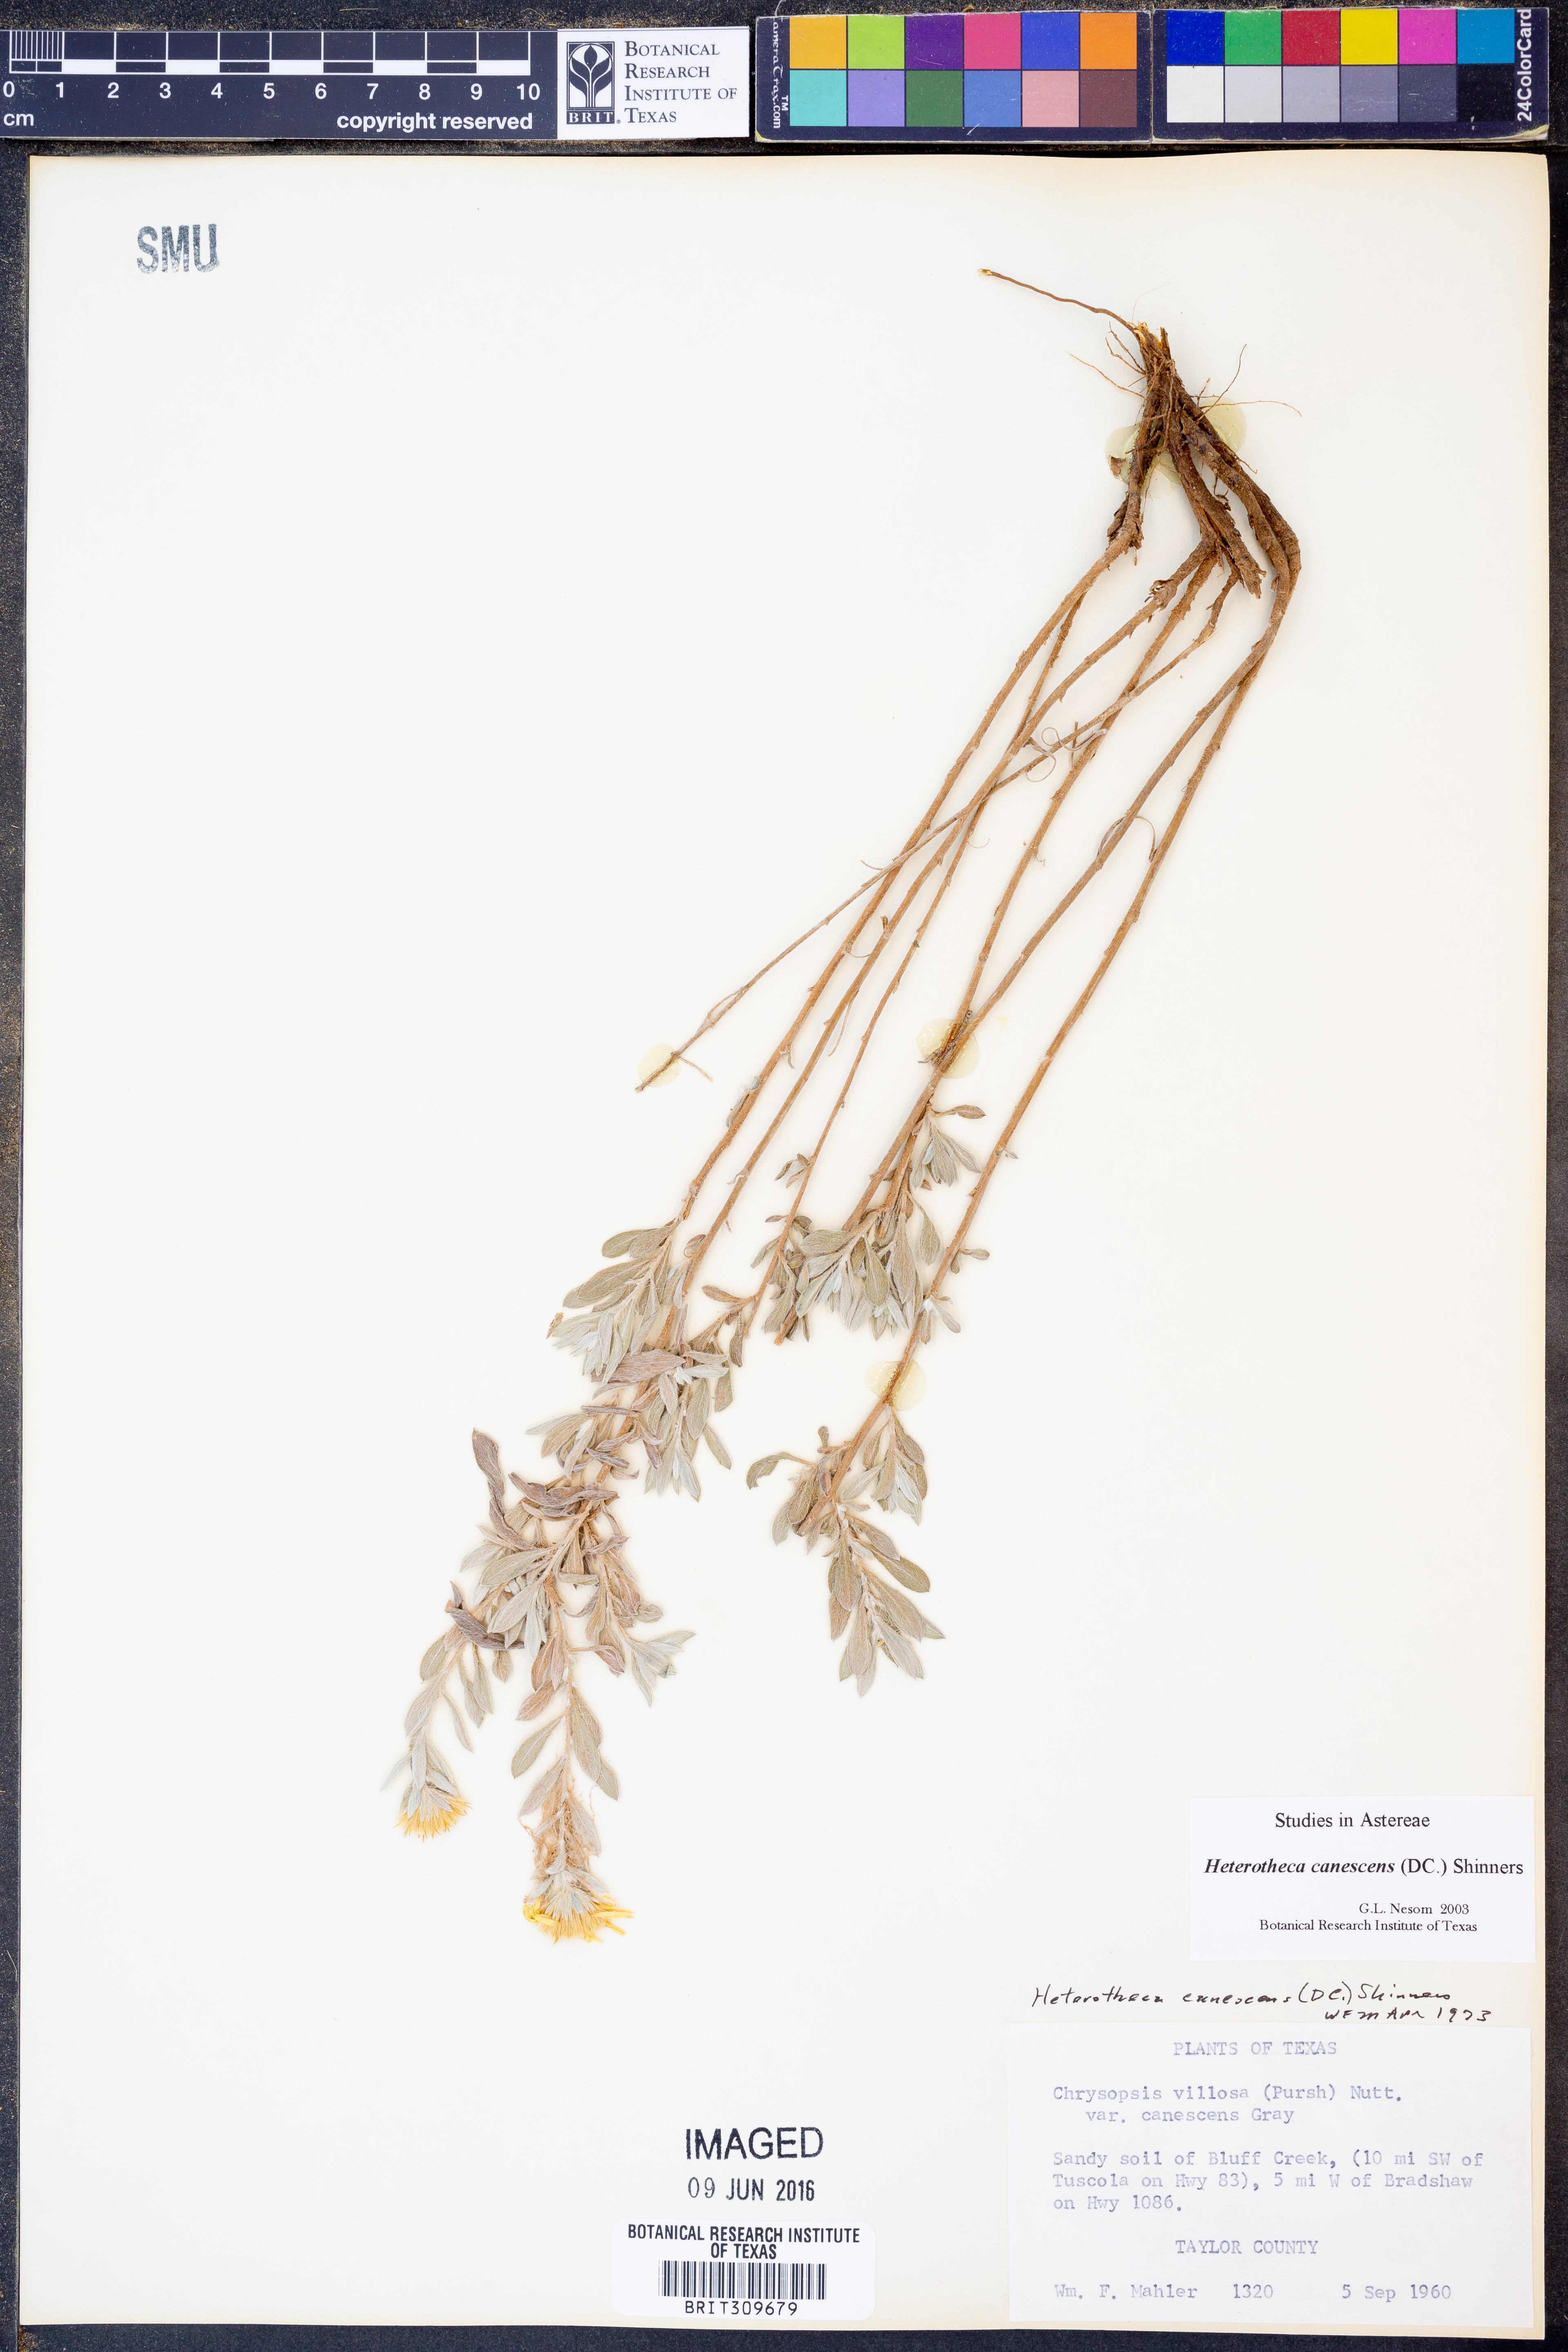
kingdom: Plantae
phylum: Tracheophyta
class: Magnoliopsida
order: Asterales
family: Asteraceae
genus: Heterotheca
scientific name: Heterotheca canescens
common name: Hoary golden-aster
